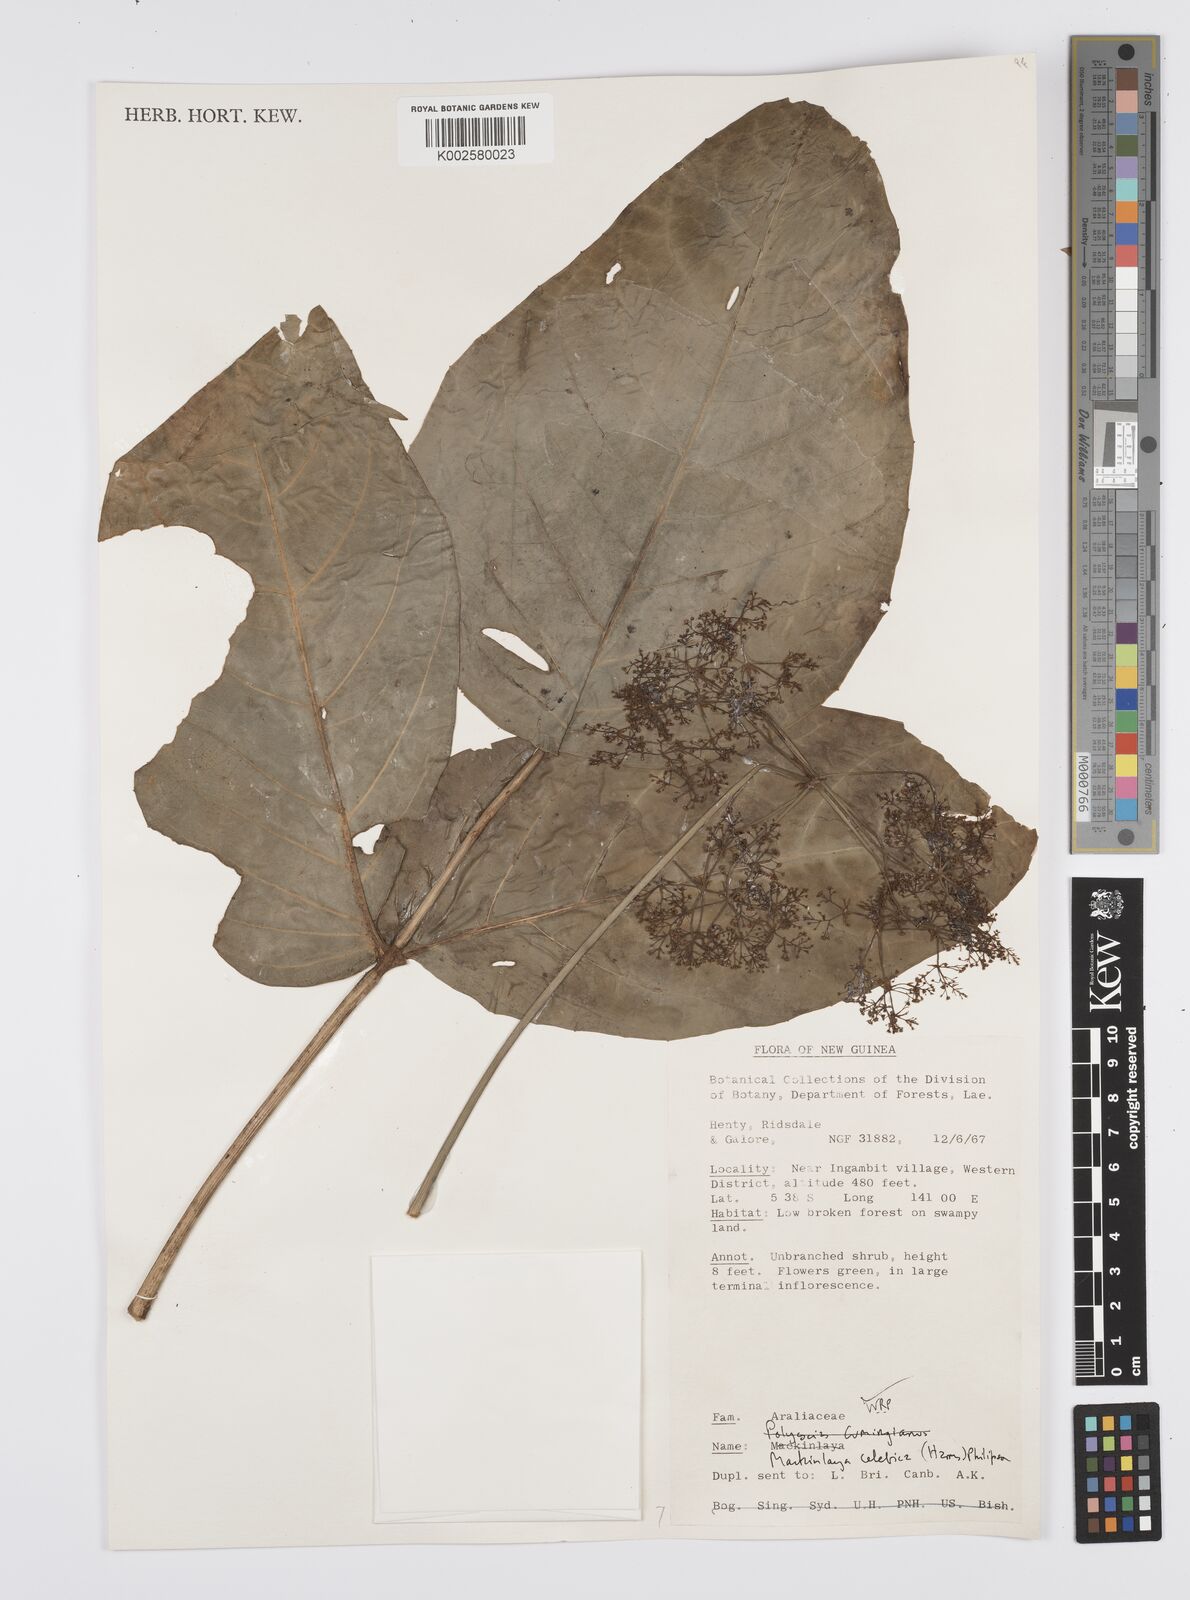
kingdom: Plantae
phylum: Tracheophyta
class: Magnoliopsida
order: Apiales
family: Apiaceae
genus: Mackinlaya
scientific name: Mackinlaya celebica
